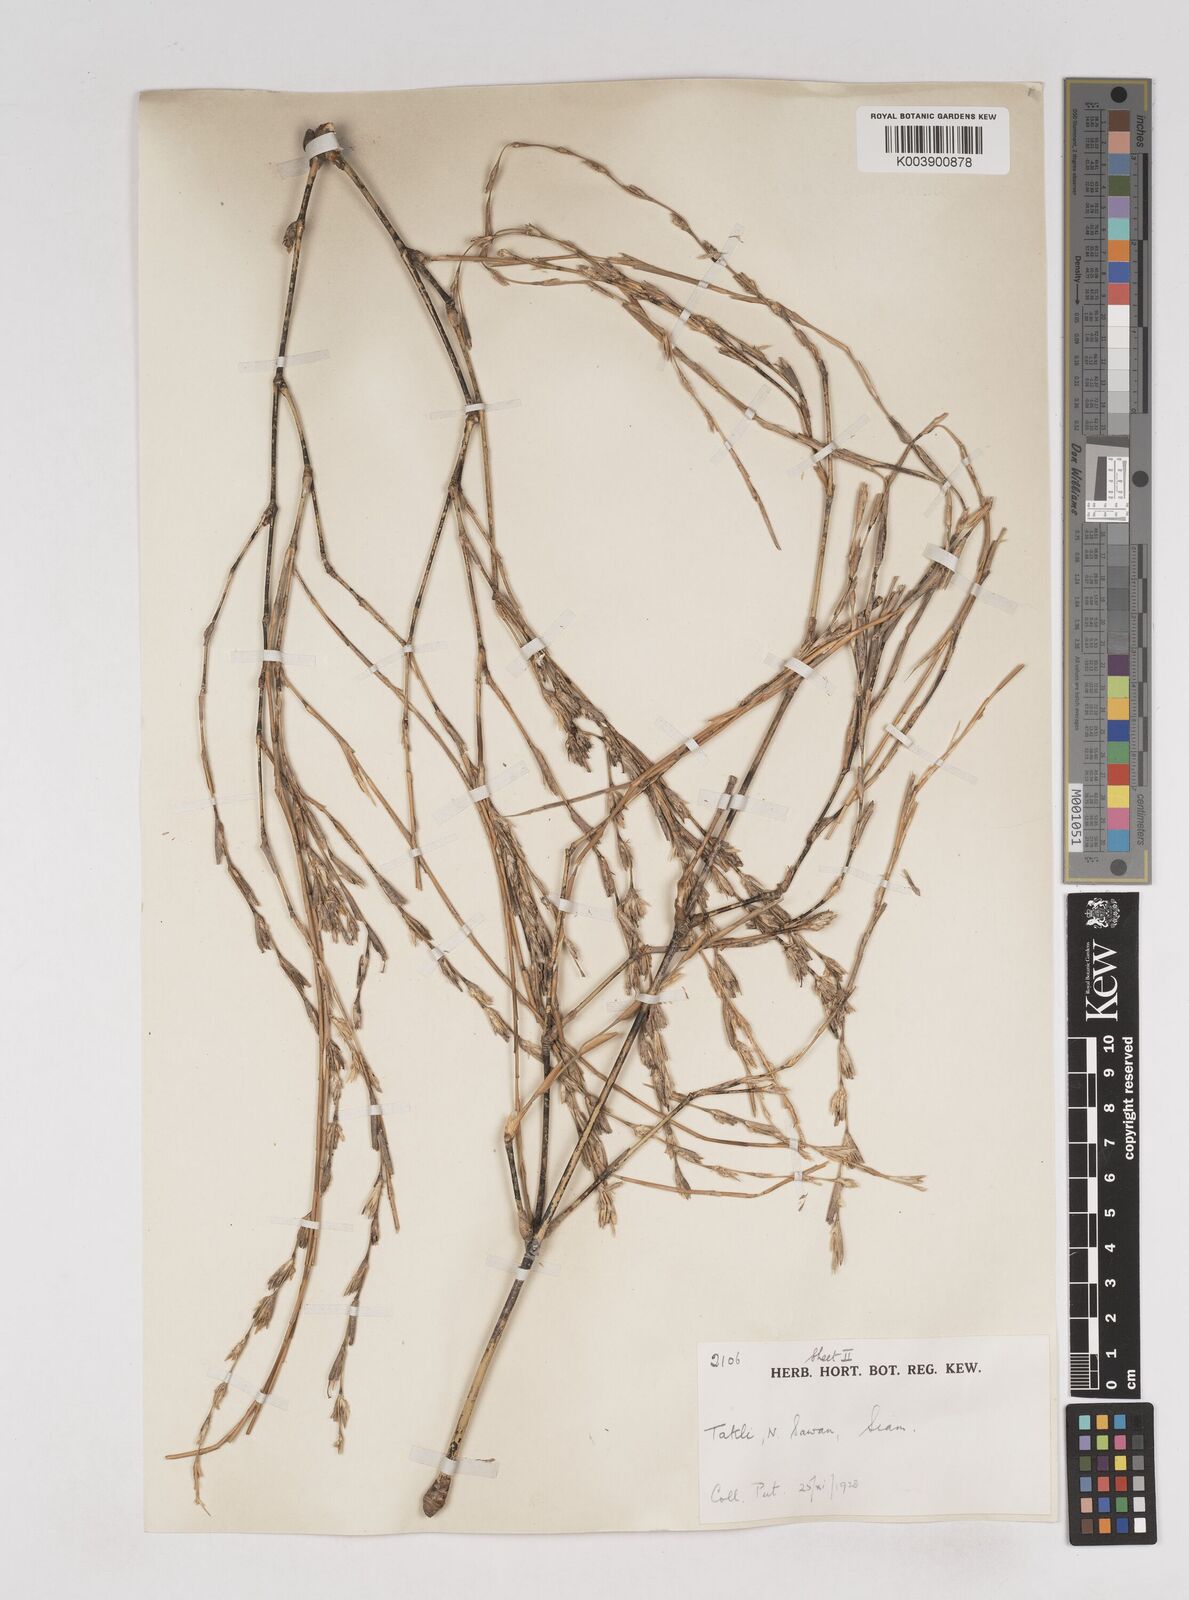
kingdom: Plantae
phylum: Tracheophyta
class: Liliopsida
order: Poales
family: Poaceae
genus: Thyrsostachys
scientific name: Thyrsostachys
